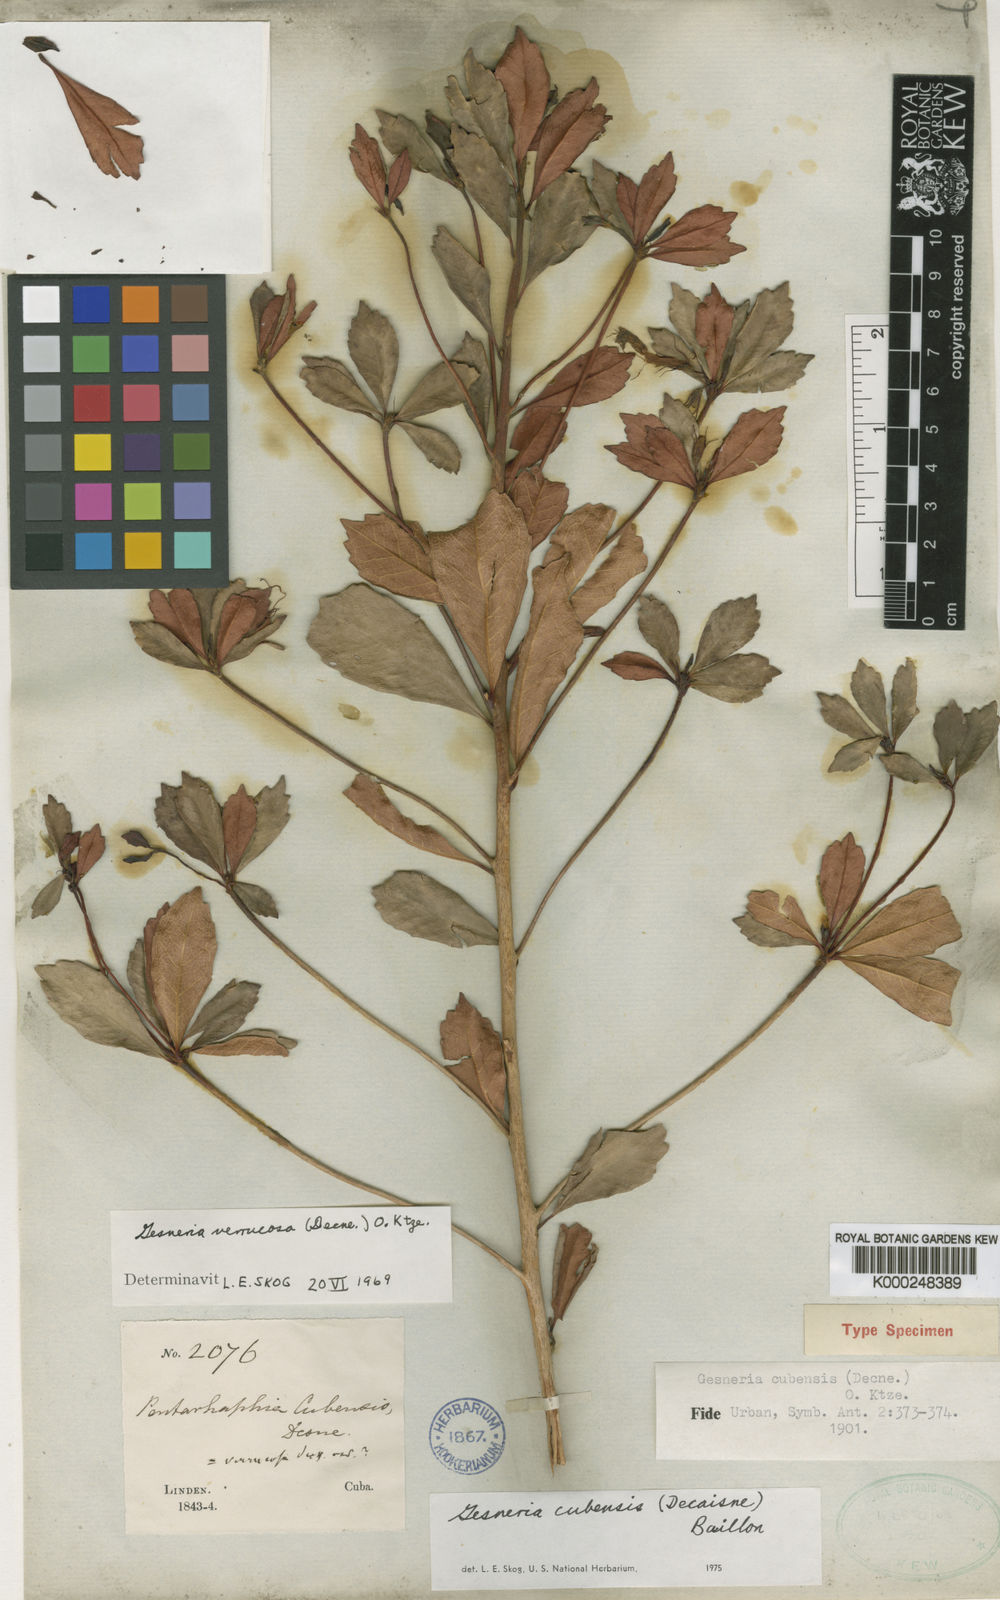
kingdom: Plantae
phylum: Tracheophyta
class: Magnoliopsida
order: Lamiales
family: Gesneriaceae
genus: Gesneria
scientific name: Gesneria cubensis
